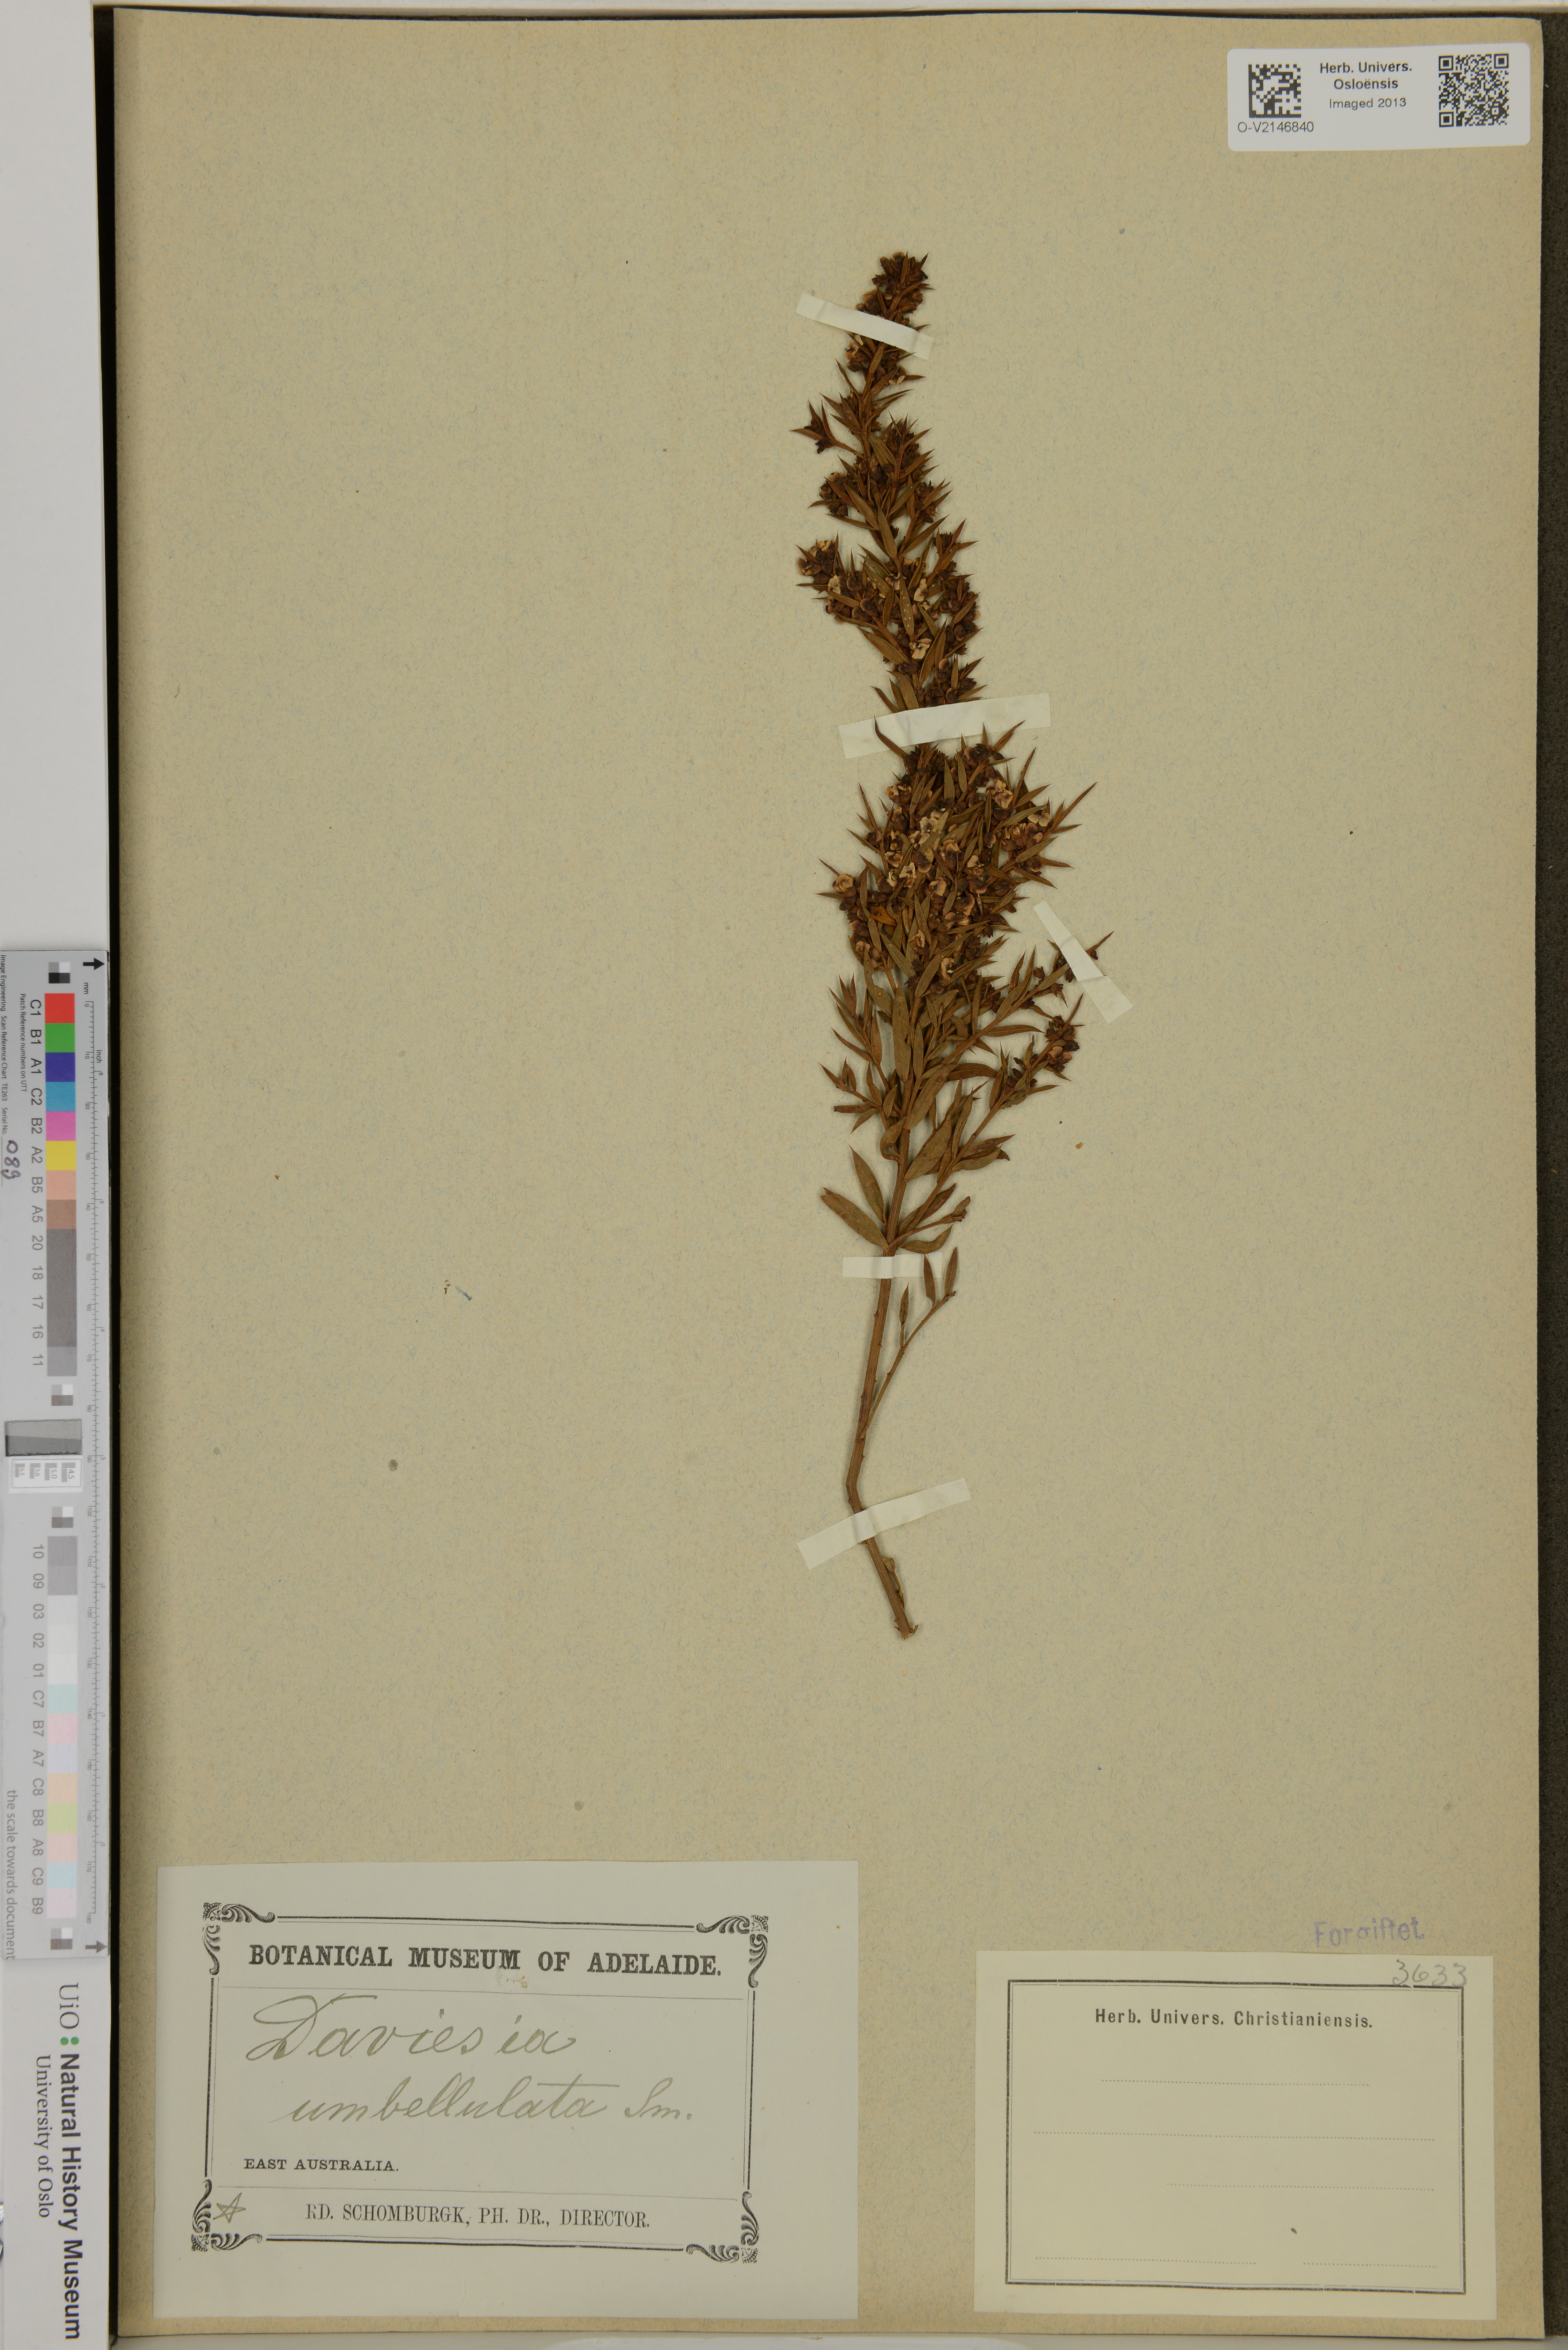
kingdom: Plantae
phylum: Tracheophyta
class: Magnoliopsida
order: Fabales
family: Fabaceae
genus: Daviesia
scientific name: Daviesia umbellulata
